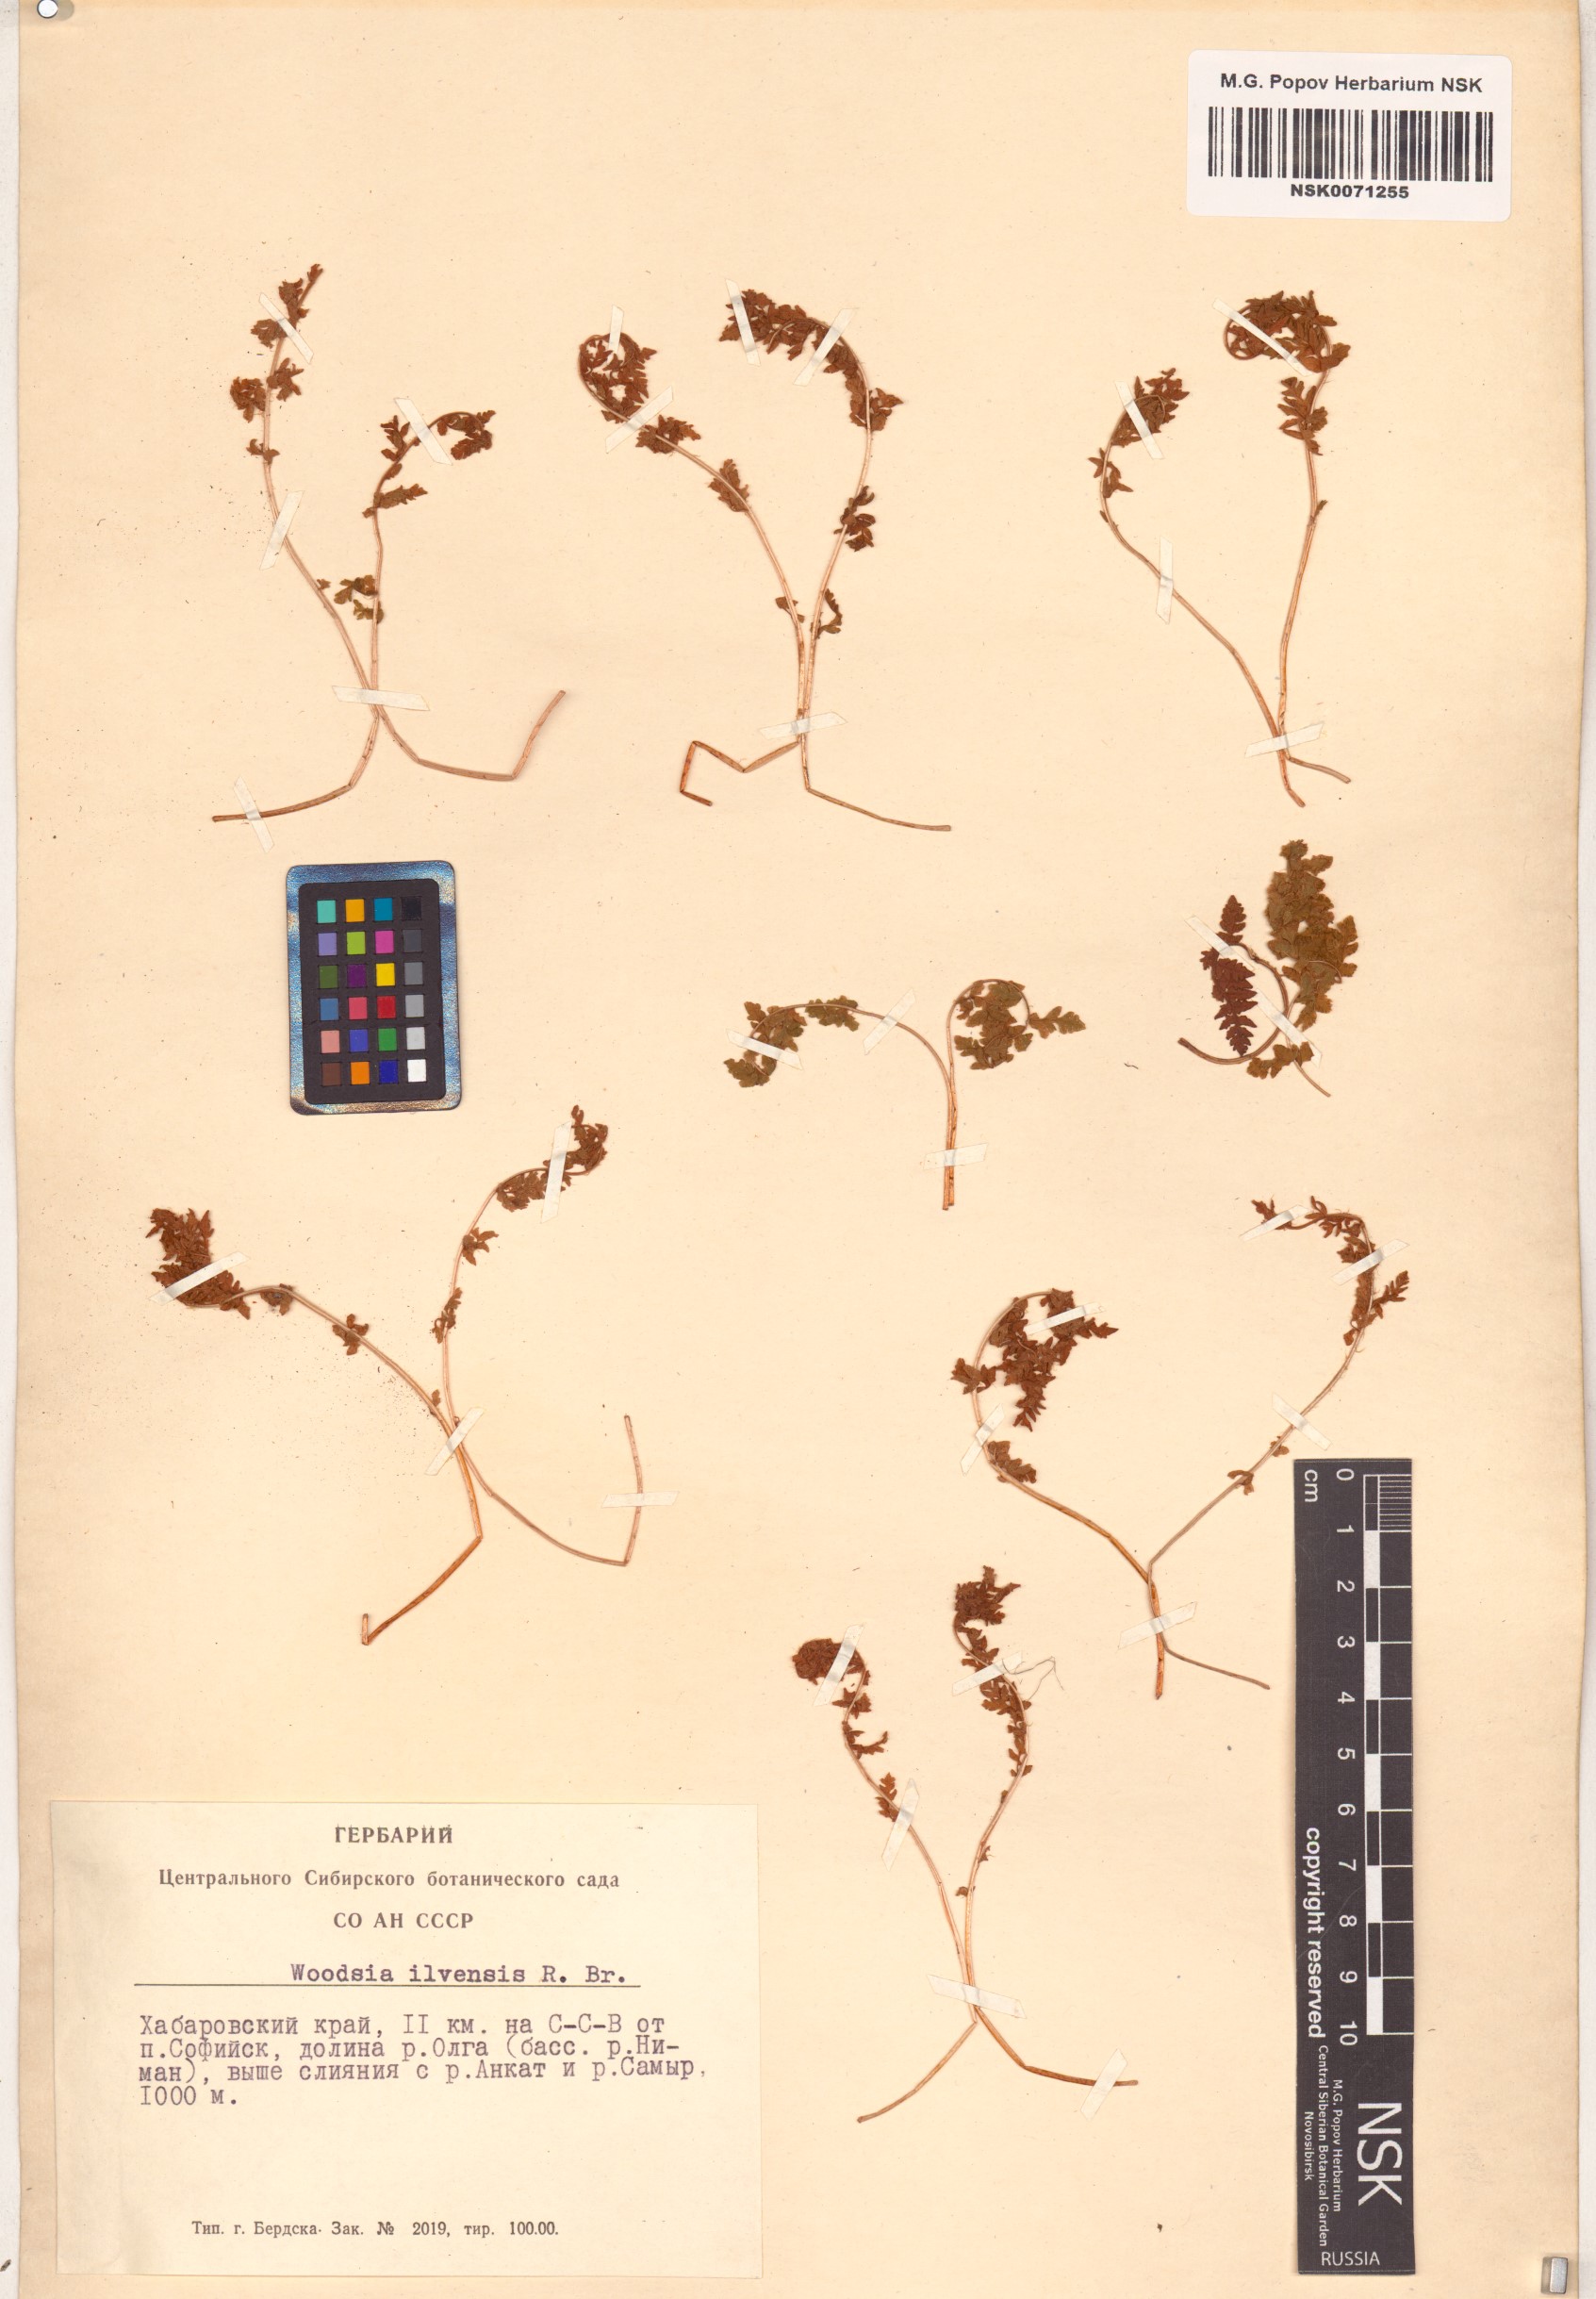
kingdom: Plantae
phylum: Tracheophyta
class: Polypodiopsida
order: Polypodiales
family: Woodsiaceae
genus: Woodsia
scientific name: Woodsia ilvensis
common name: Fragrant woodsia
